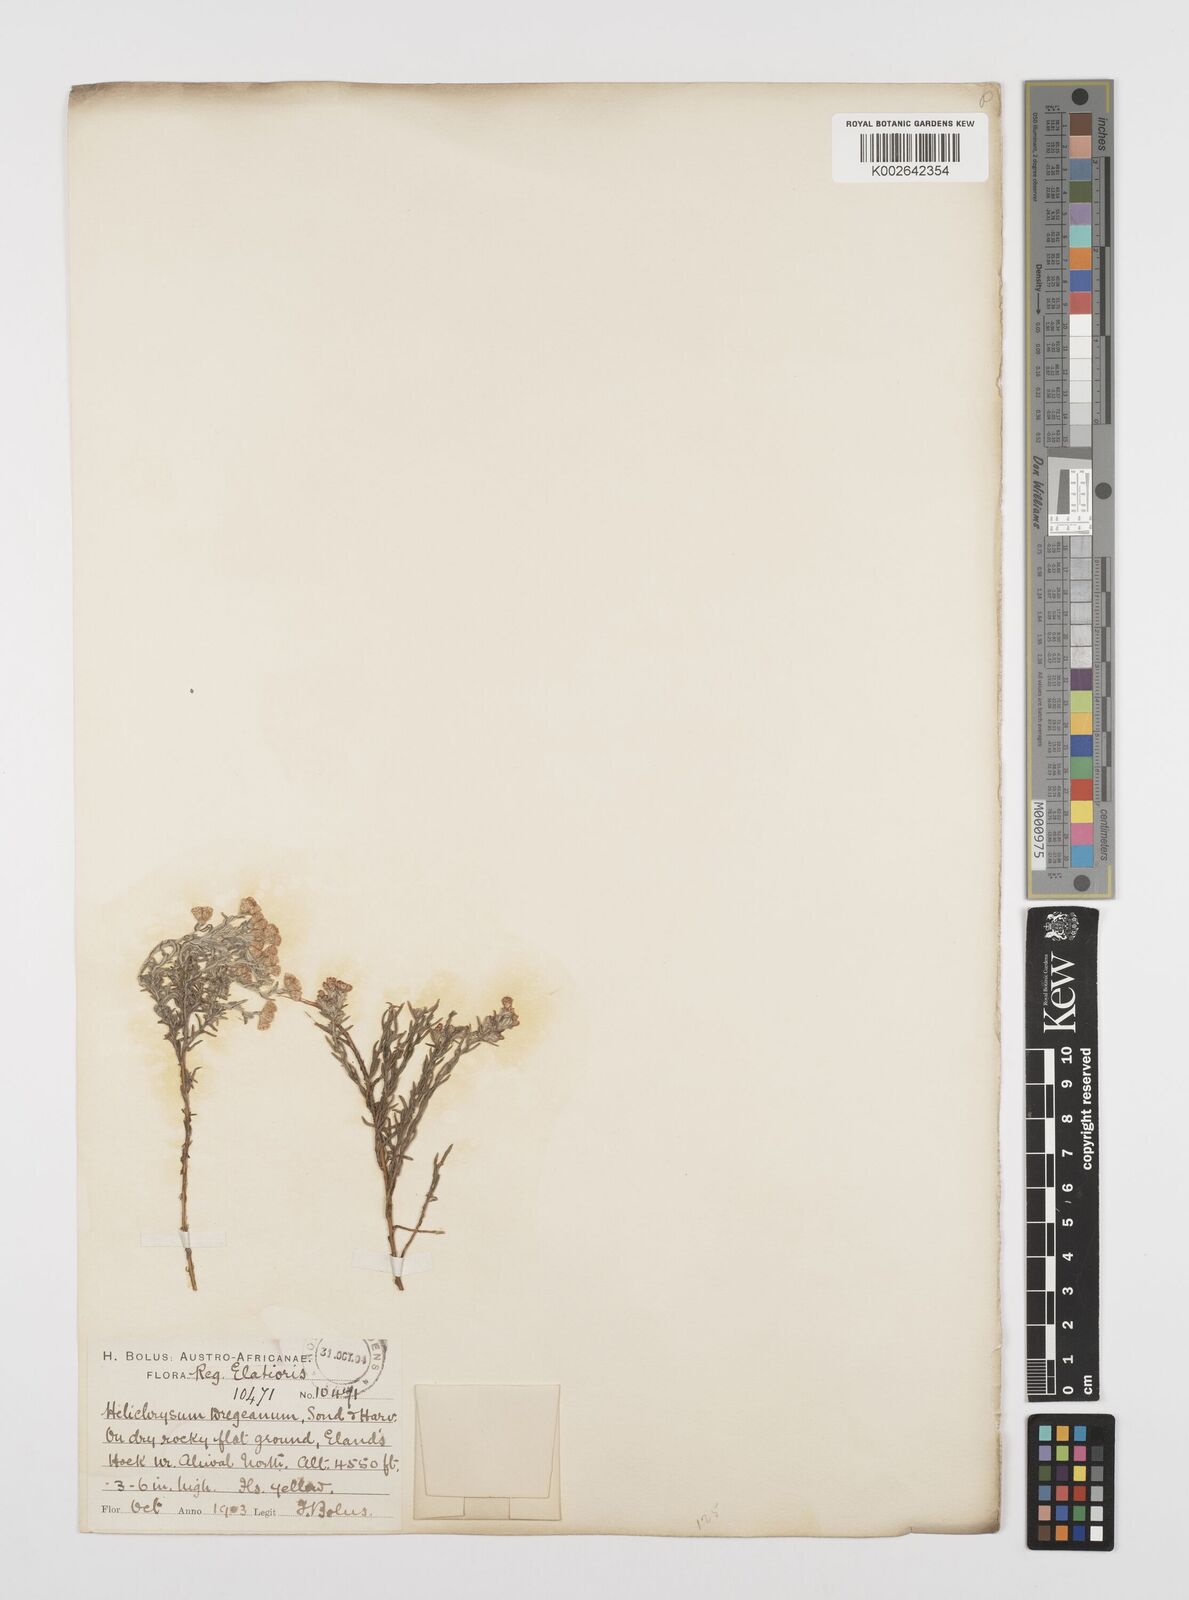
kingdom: Plantae
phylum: Tracheophyta
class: Magnoliopsida
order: Asterales
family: Asteraceae
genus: Helichrysum
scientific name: Helichrysum dregeanum
